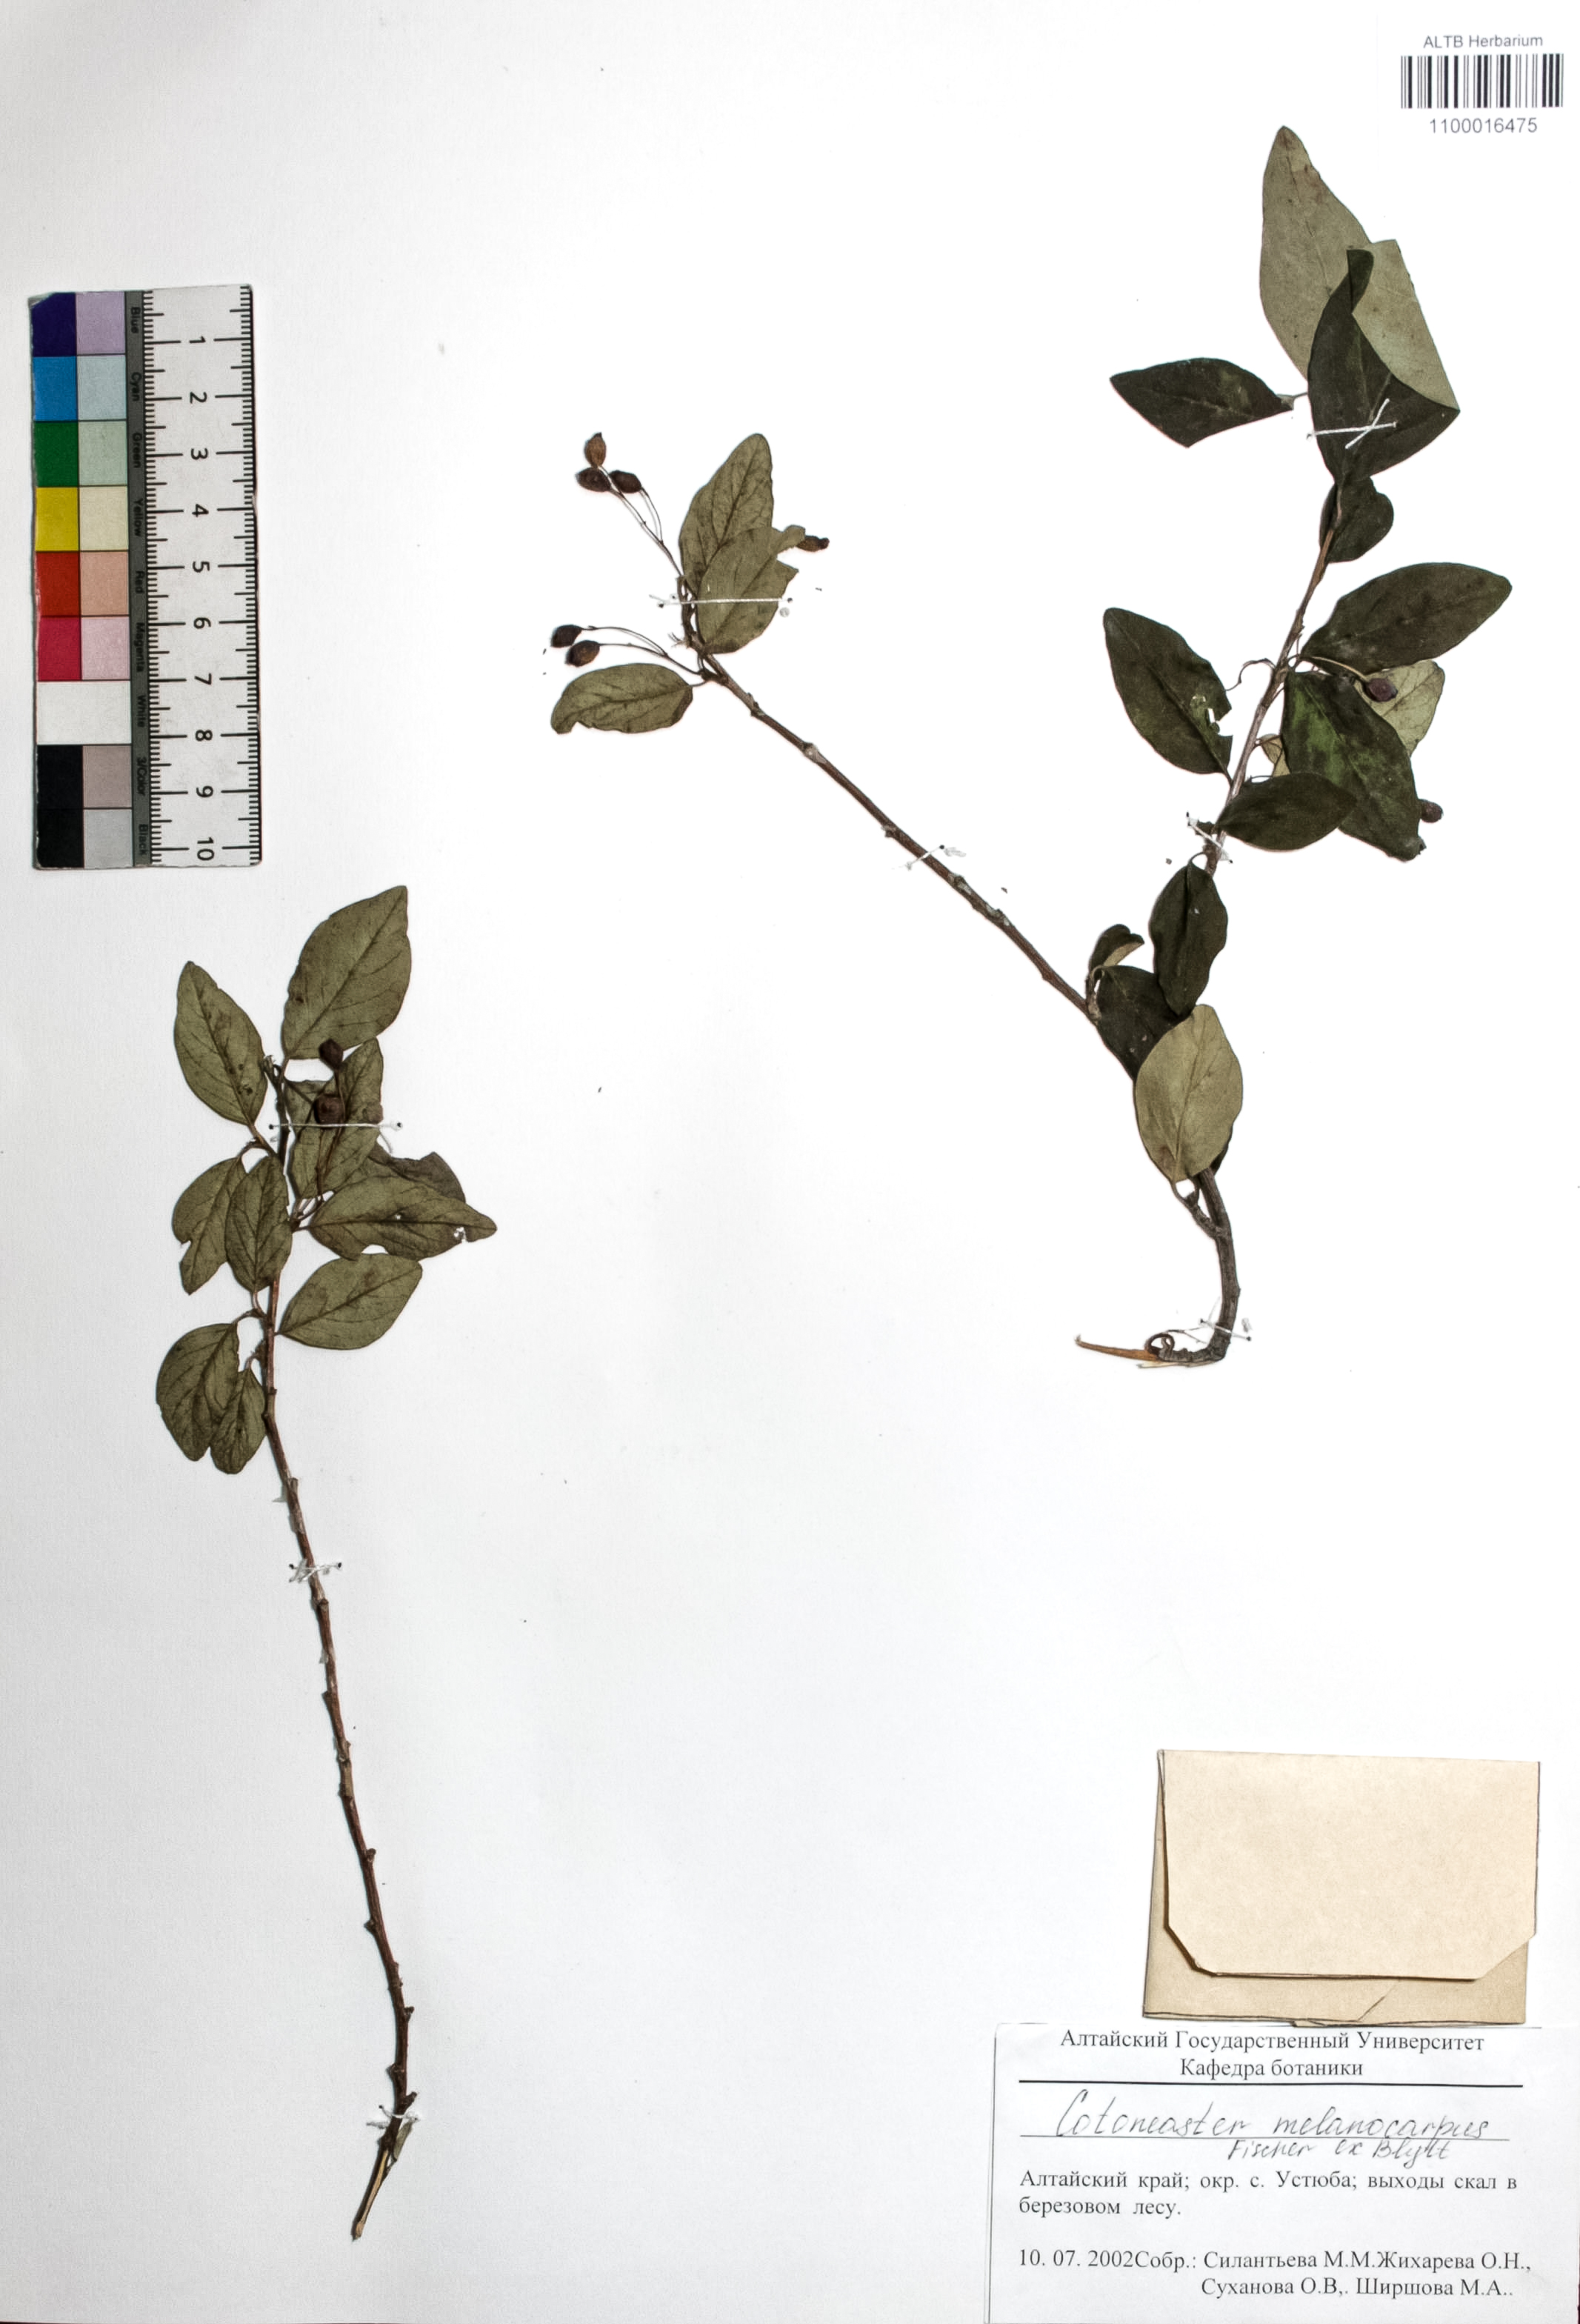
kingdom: Plantae
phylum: Tracheophyta
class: Magnoliopsida
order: Rosales
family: Rosaceae
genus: Cotoneaster
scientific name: Cotoneaster niger
